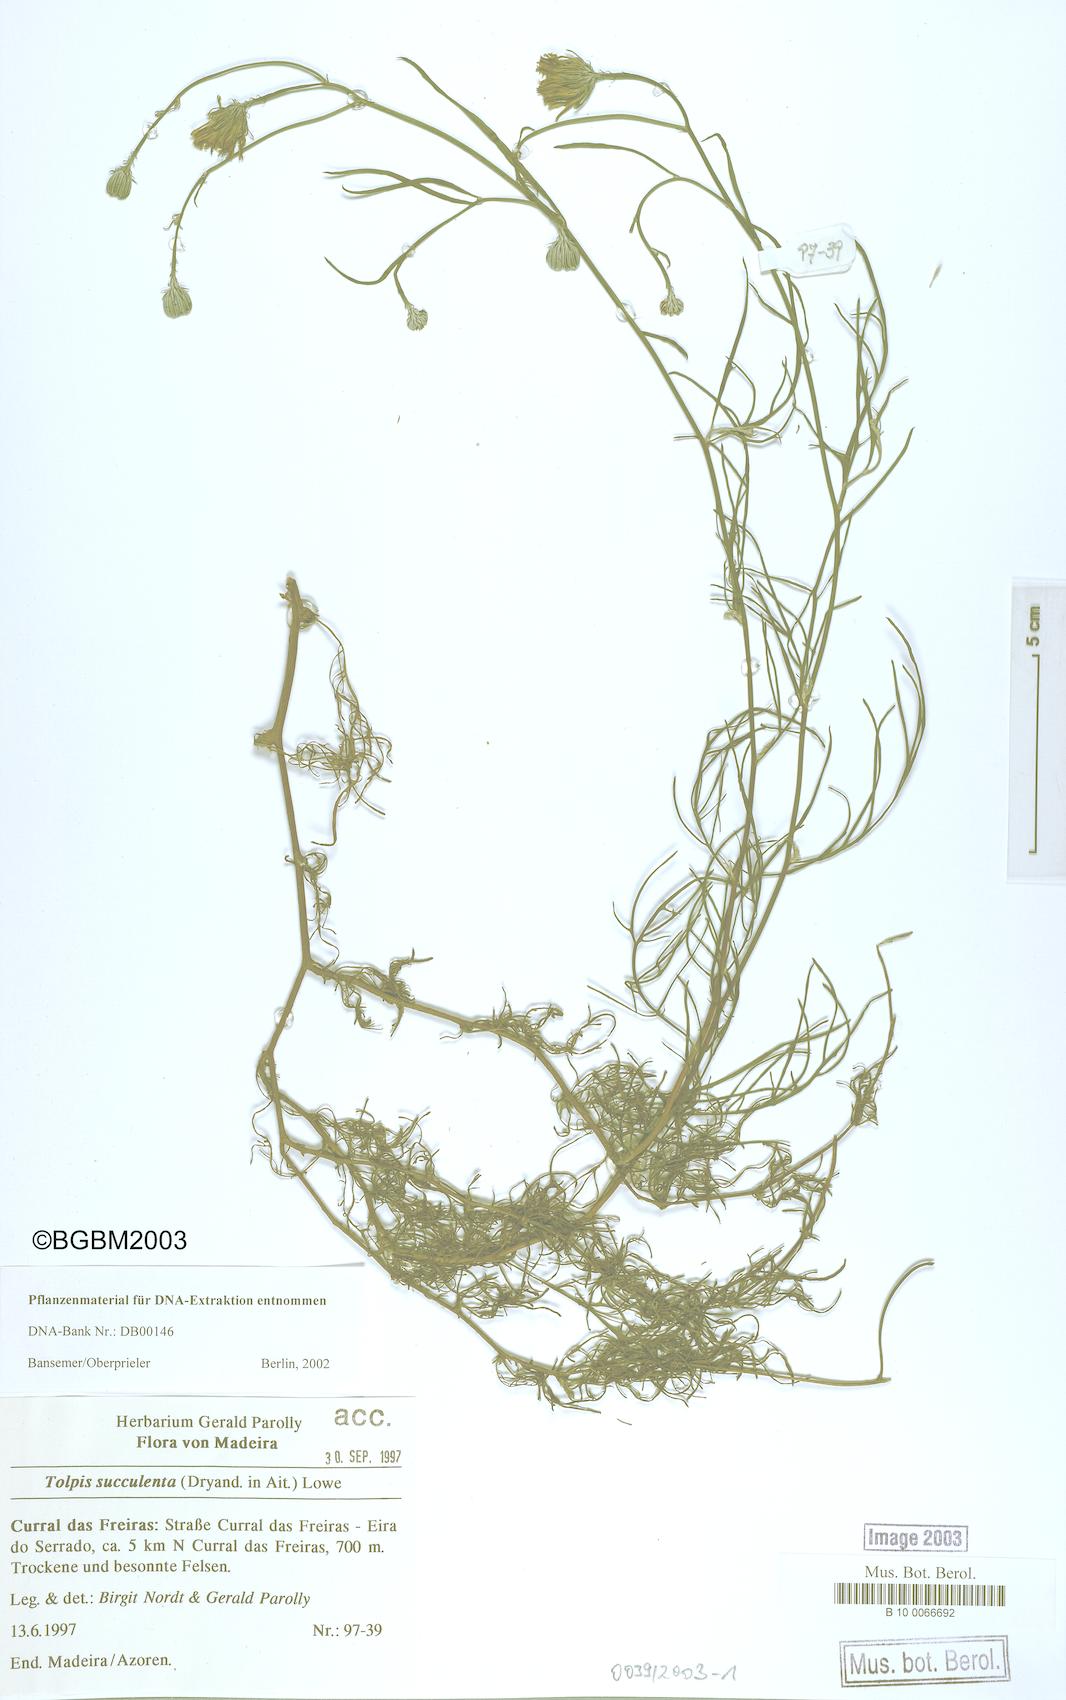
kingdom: Plantae
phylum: Tracheophyta
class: Magnoliopsida
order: Asterales
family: Asteraceae
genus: Tolpis
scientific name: Tolpis succulenta
